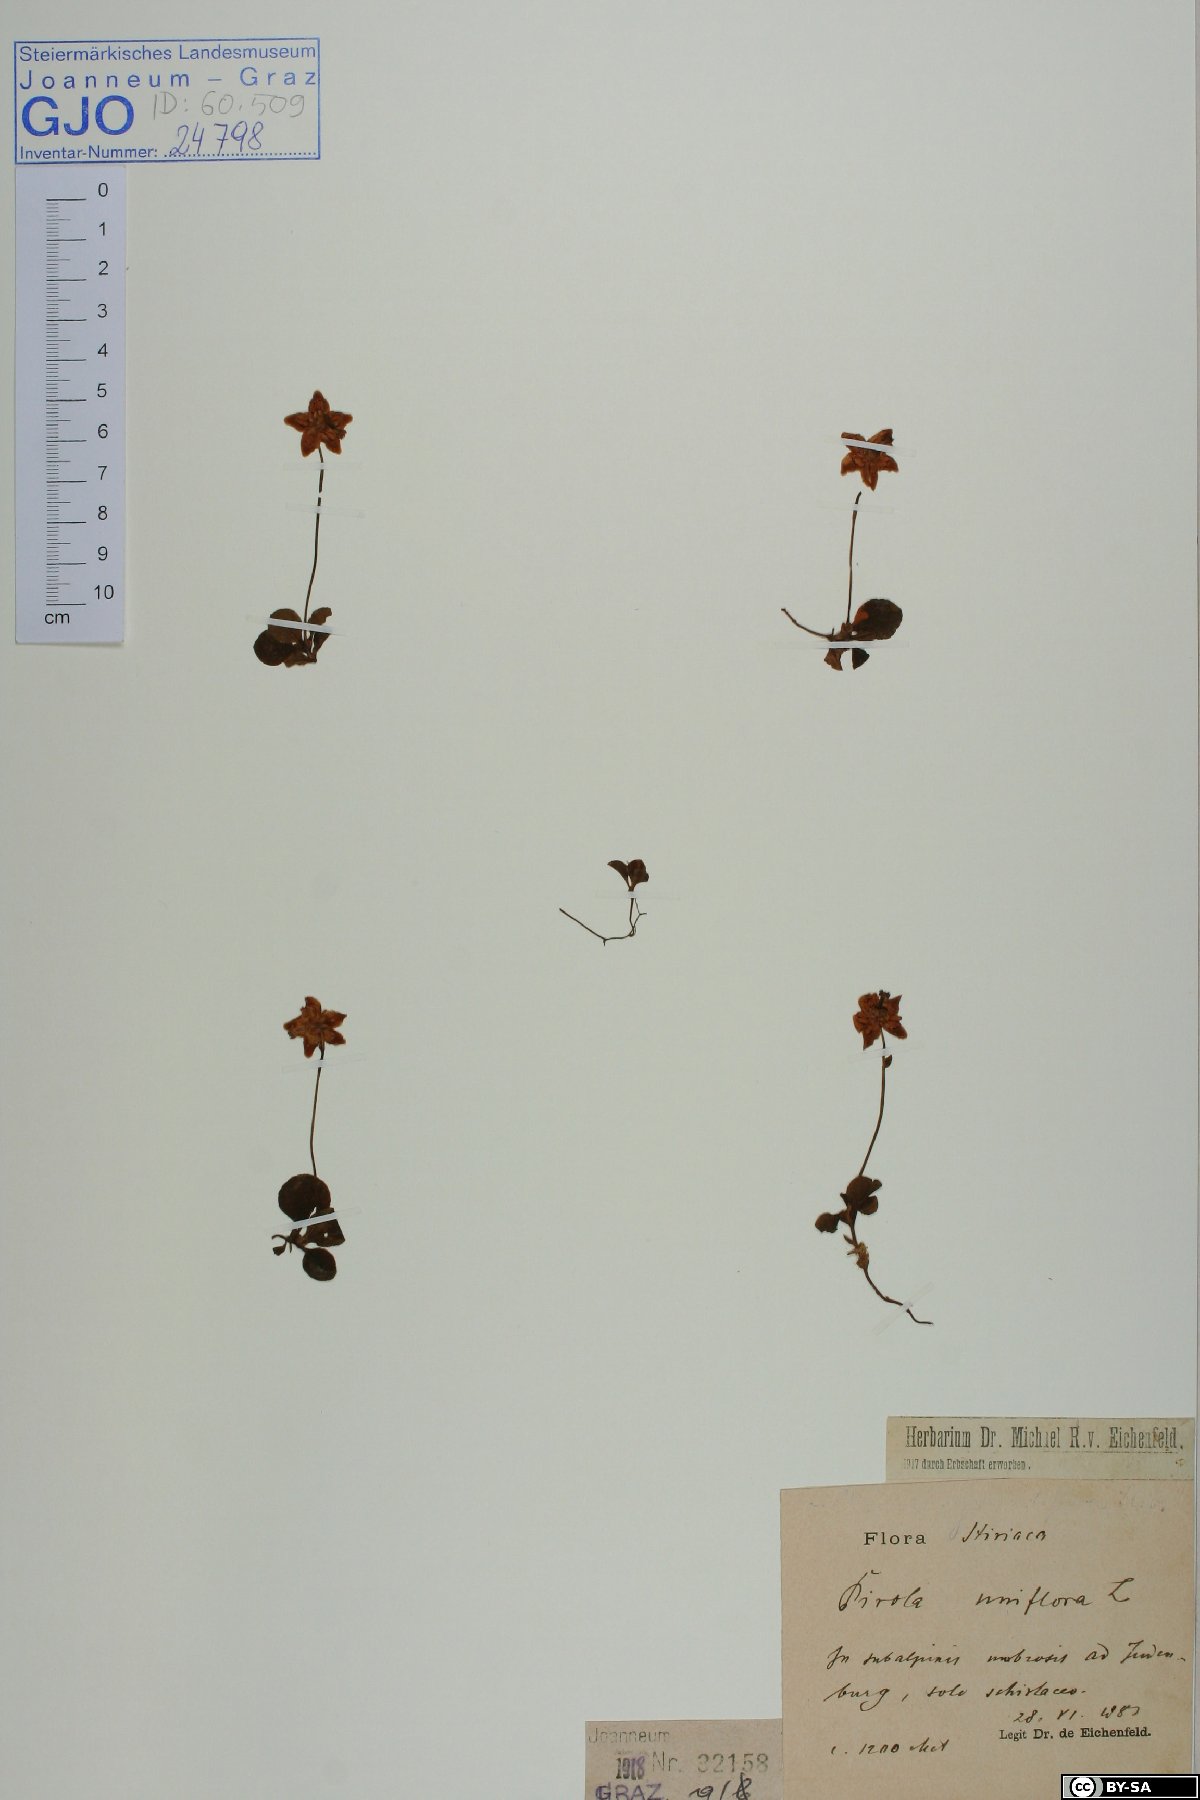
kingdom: Plantae
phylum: Tracheophyta
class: Magnoliopsida
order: Ericales
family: Ericaceae
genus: Moneses
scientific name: Moneses uniflora
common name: One-flowered wintergreen
